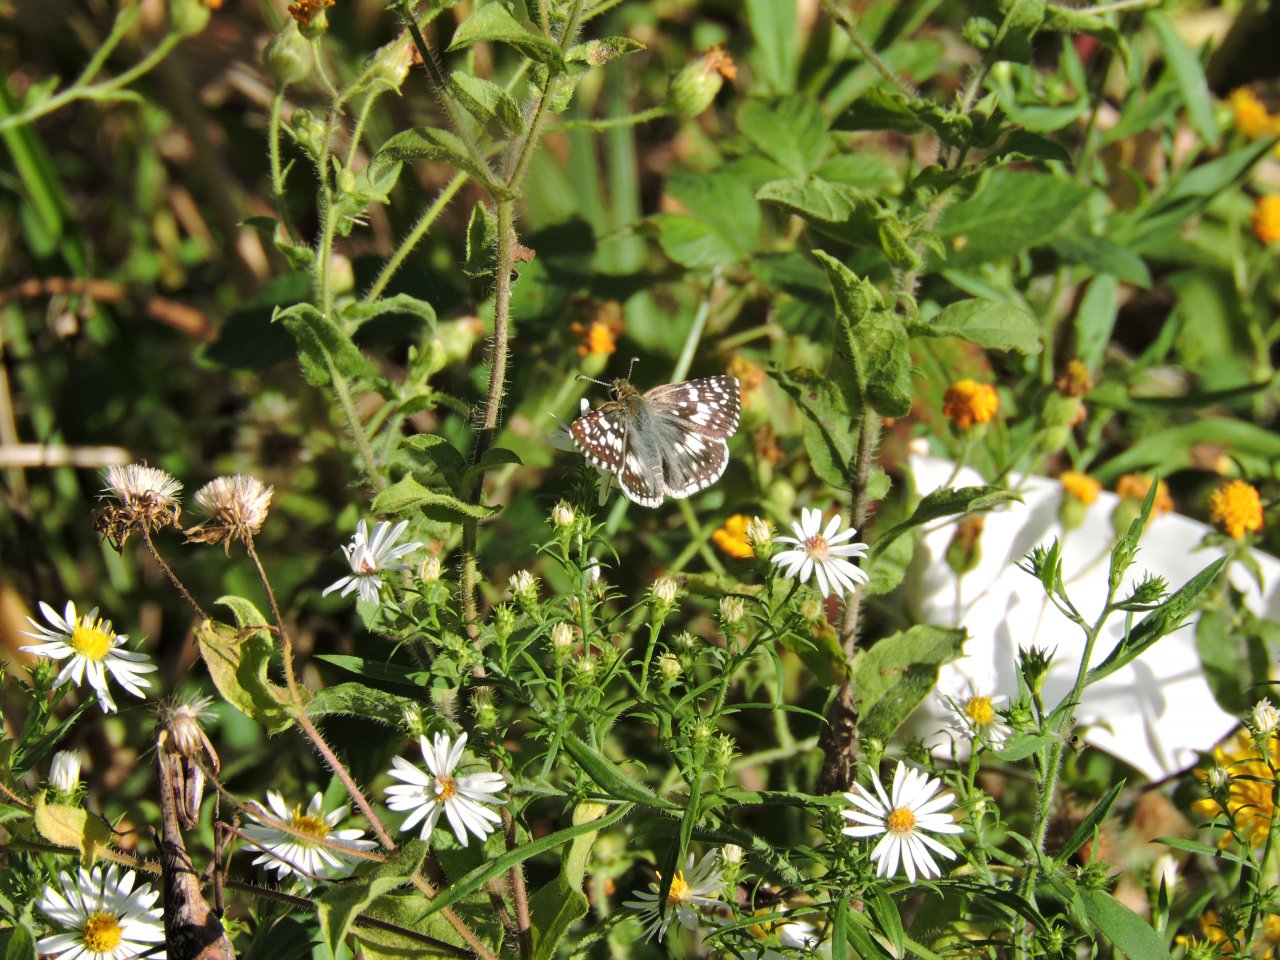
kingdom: Animalia
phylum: Arthropoda
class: Insecta
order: Lepidoptera
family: Hesperiidae
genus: Pyrgus
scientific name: Pyrgus
